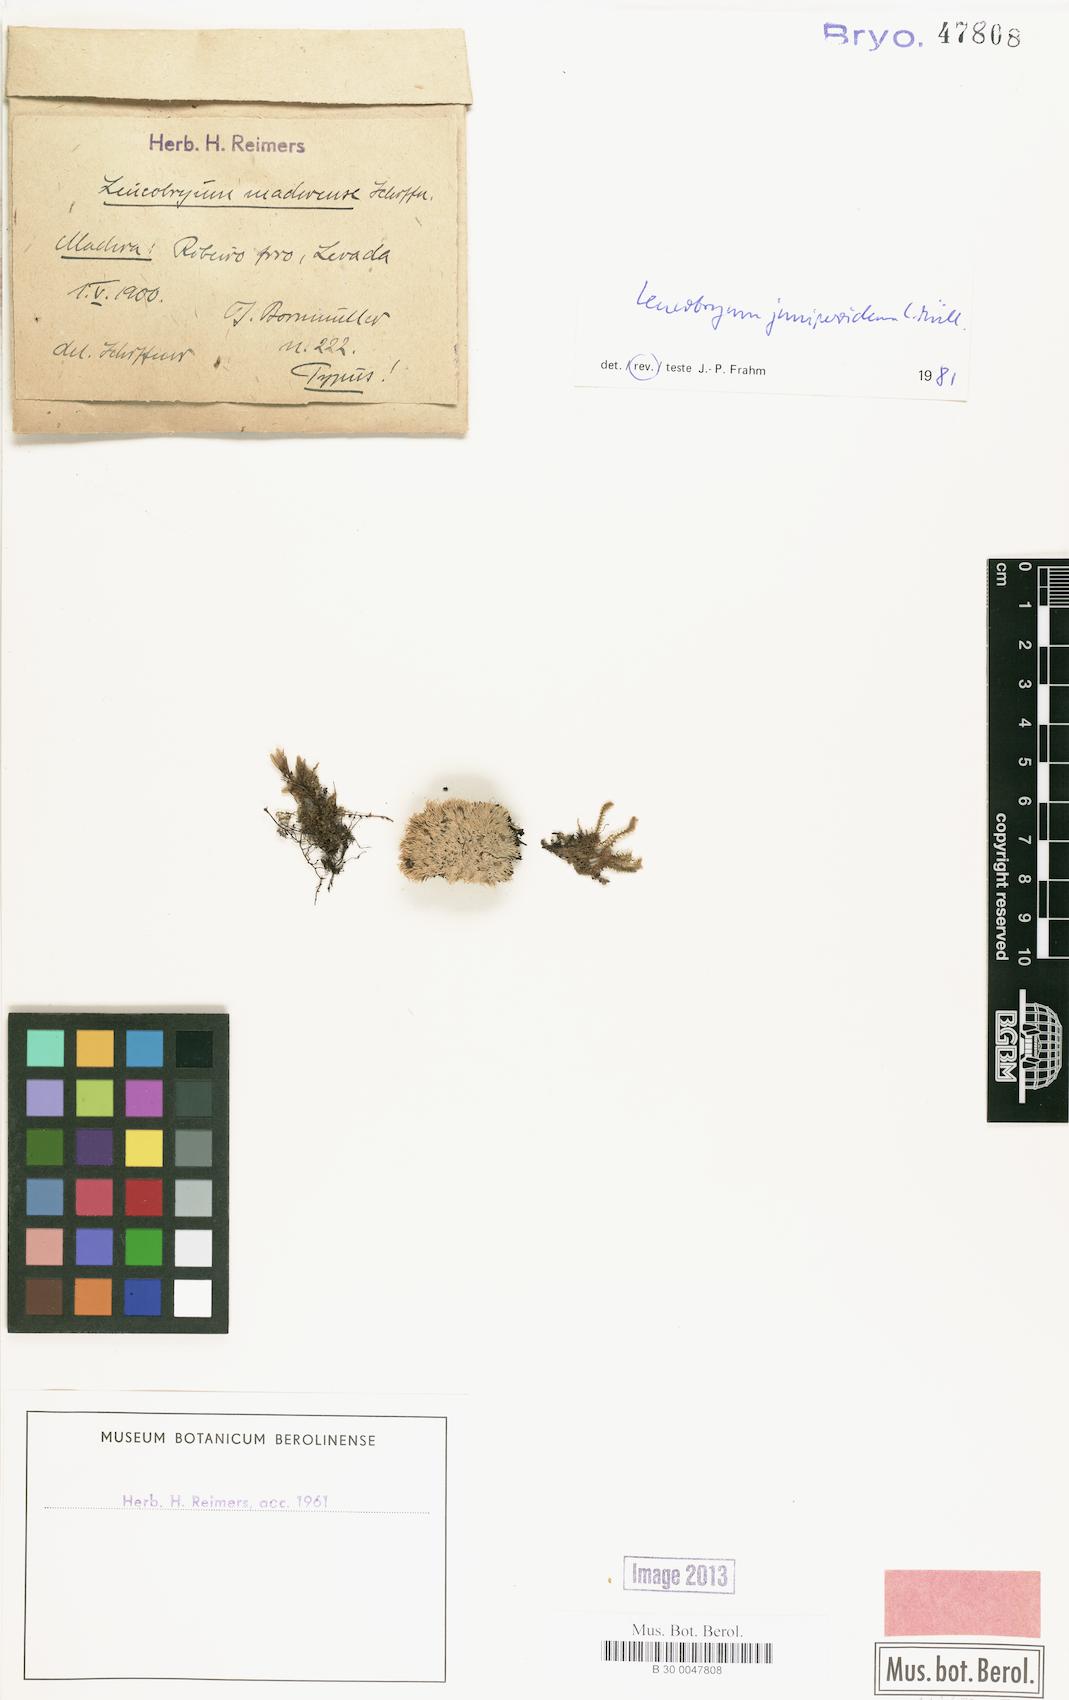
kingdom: Plantae
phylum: Bryophyta
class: Bryopsida
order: Dicranales
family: Leucobryaceae
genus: Leucobryum
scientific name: Leucobryum juniperoideum
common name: Smaller white-moss
